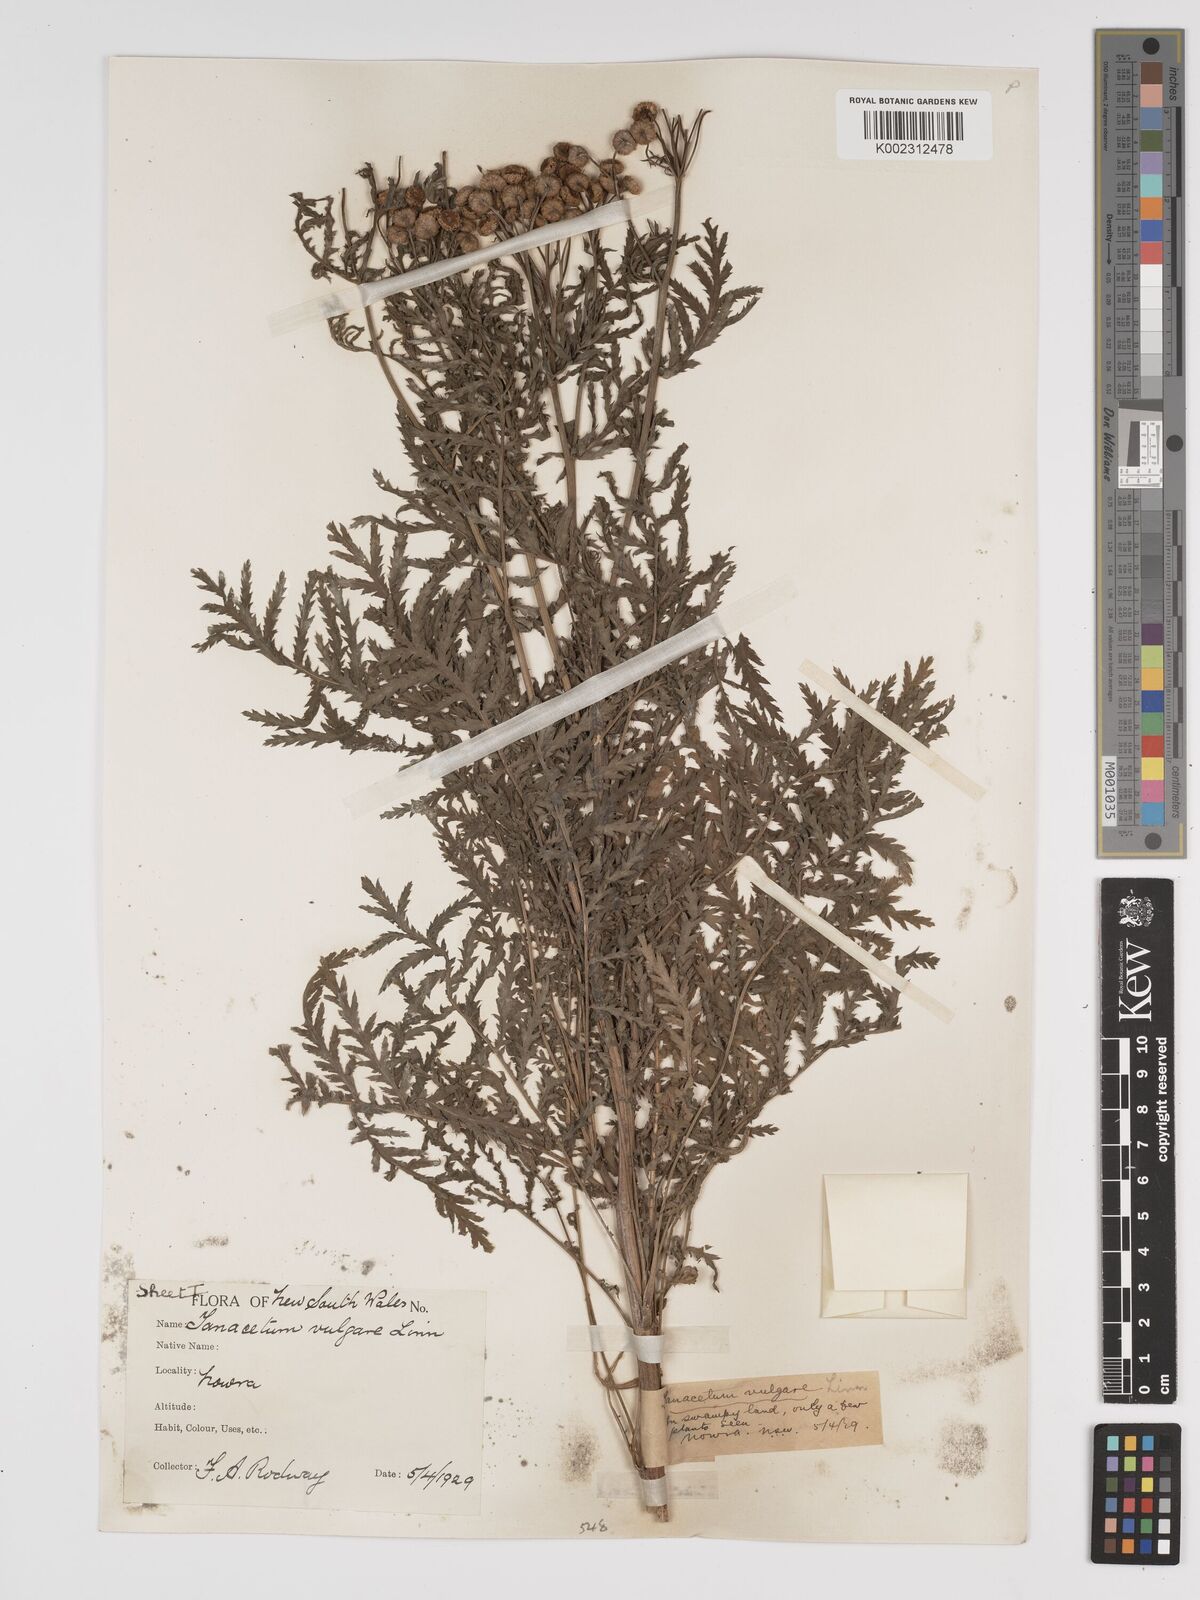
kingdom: Plantae
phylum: Tracheophyta
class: Magnoliopsida
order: Asterales
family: Asteraceae
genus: Tanacetum
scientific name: Tanacetum vulgare
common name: Common tansy
